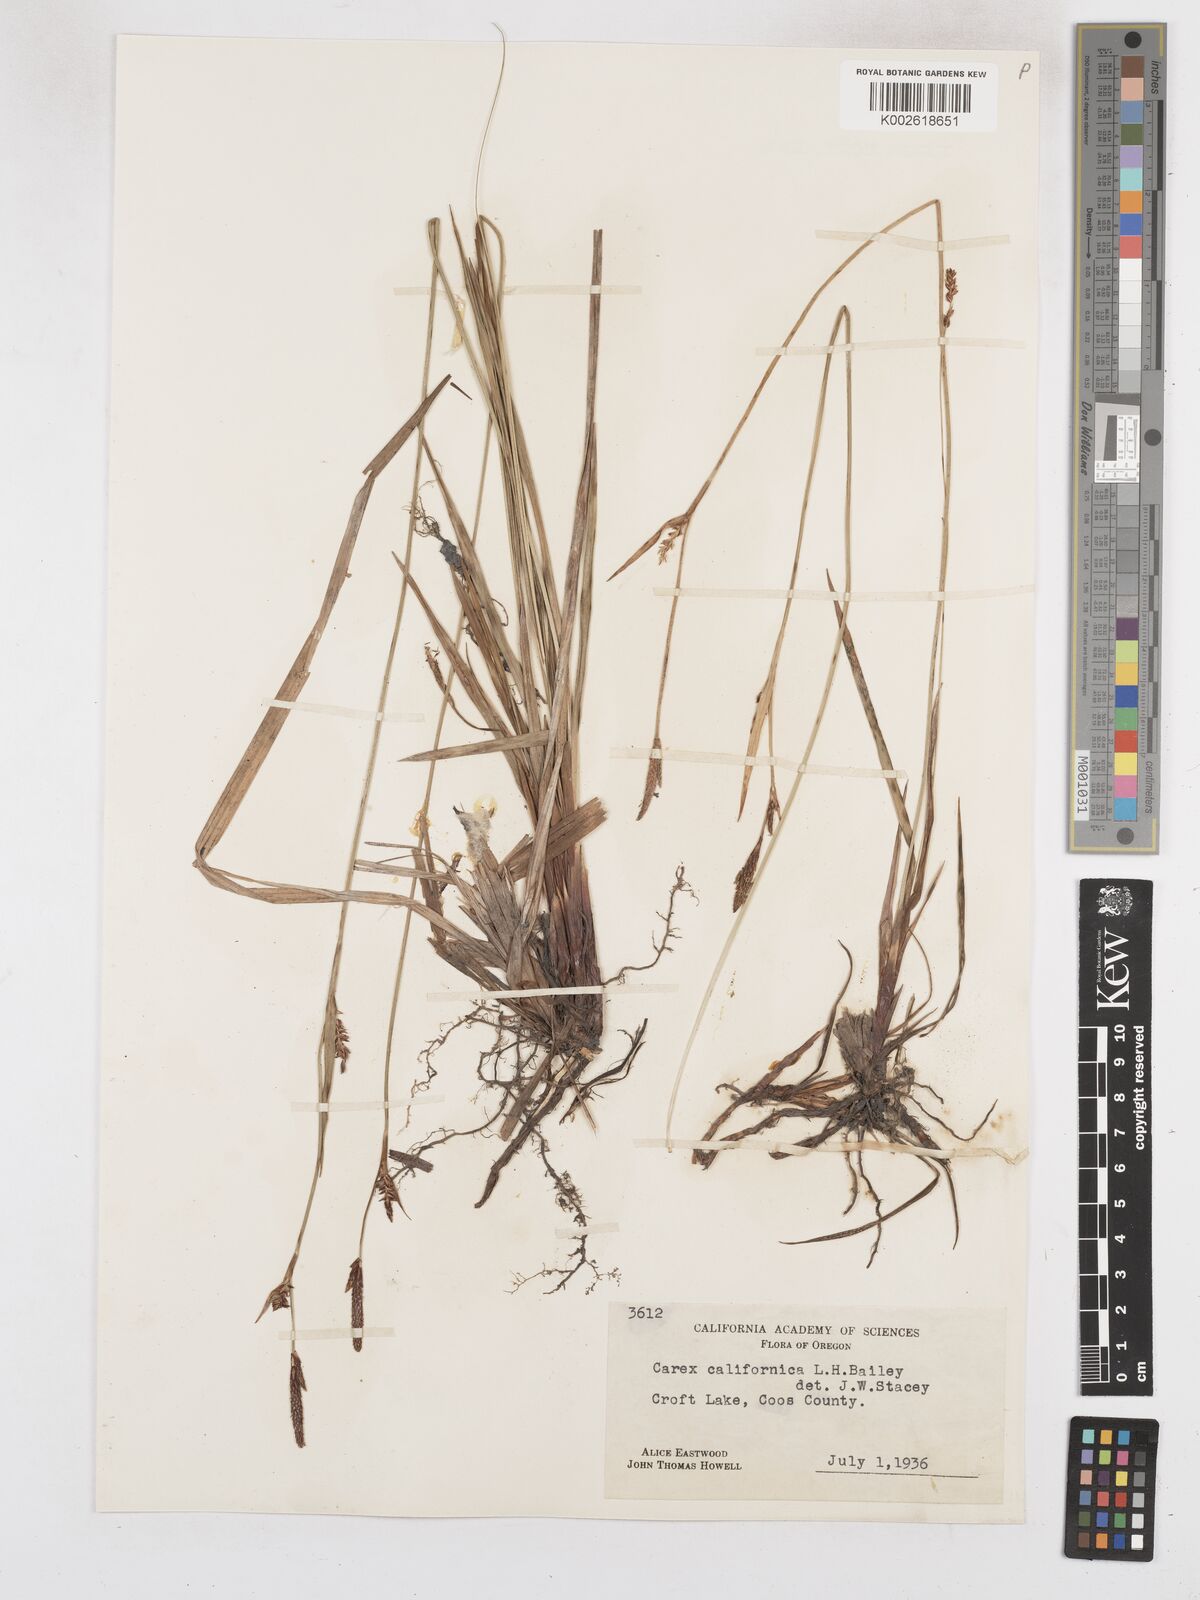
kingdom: Plantae
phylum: Tracheophyta
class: Liliopsida
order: Poales
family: Cyperaceae
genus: Carex
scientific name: Carex californica
